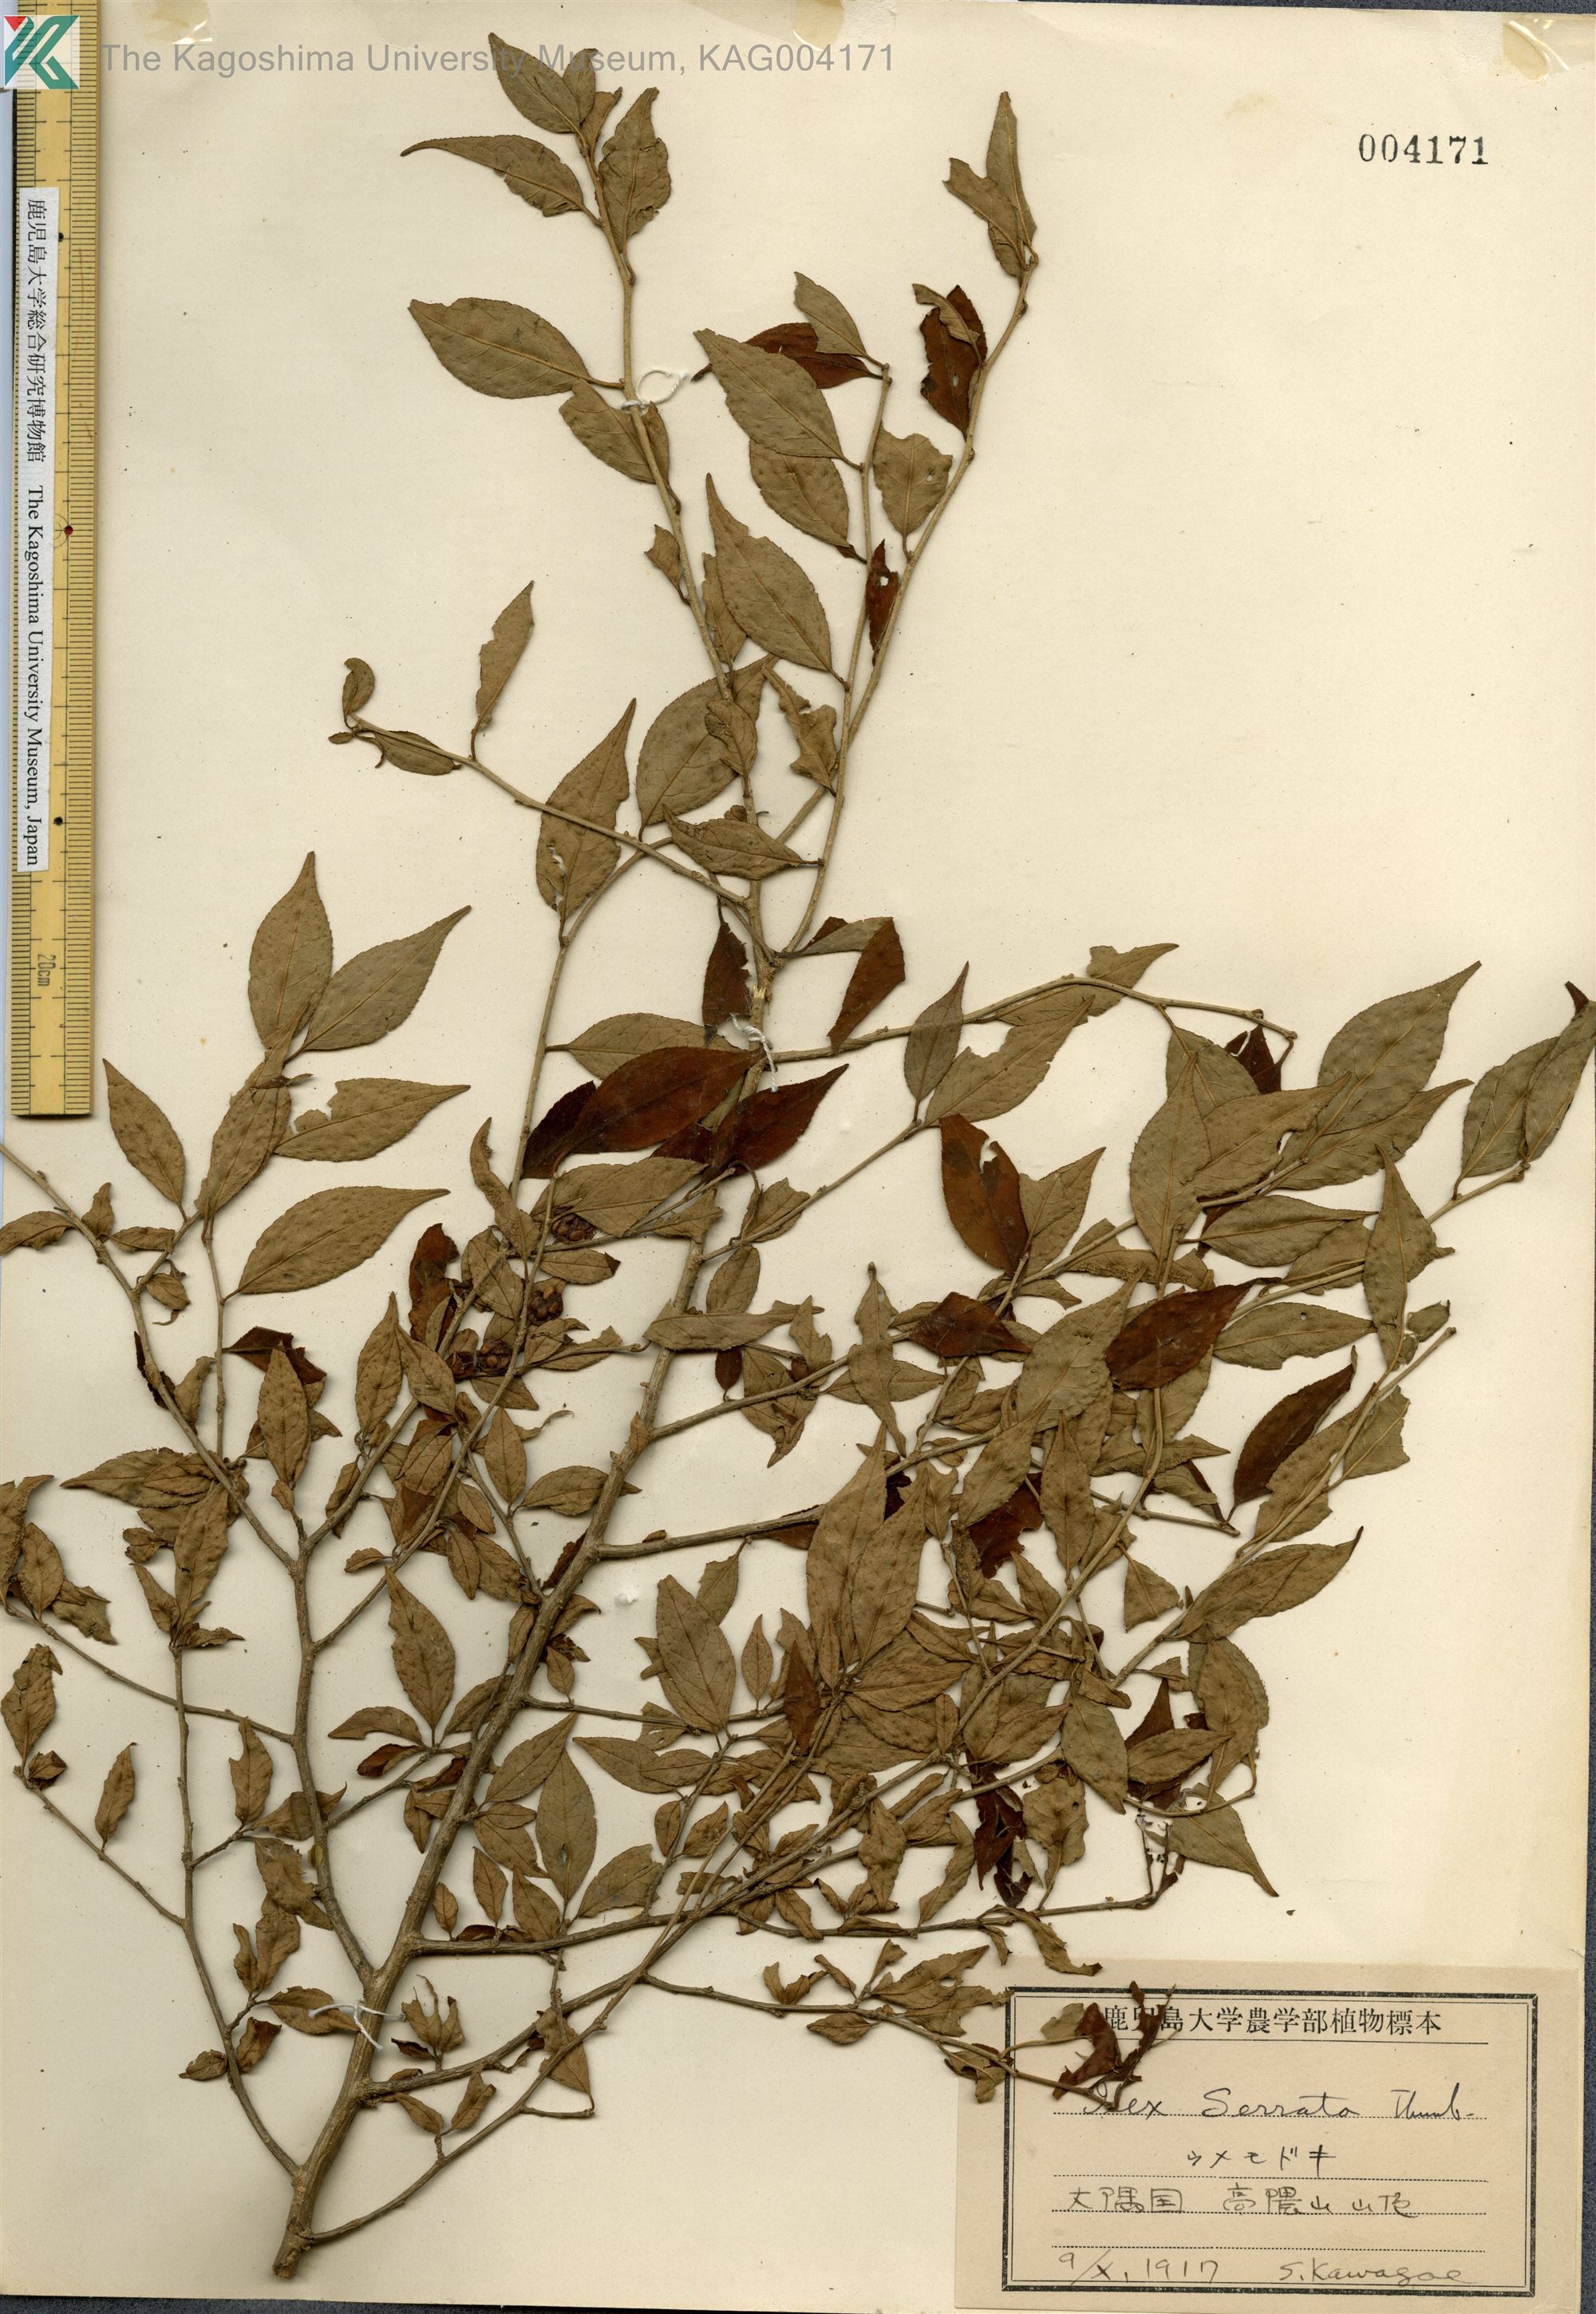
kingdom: Plantae
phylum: Tracheophyta
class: Magnoliopsida
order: Aquifoliales
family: Aquifoliaceae
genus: Ilex
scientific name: Ilex serrata
